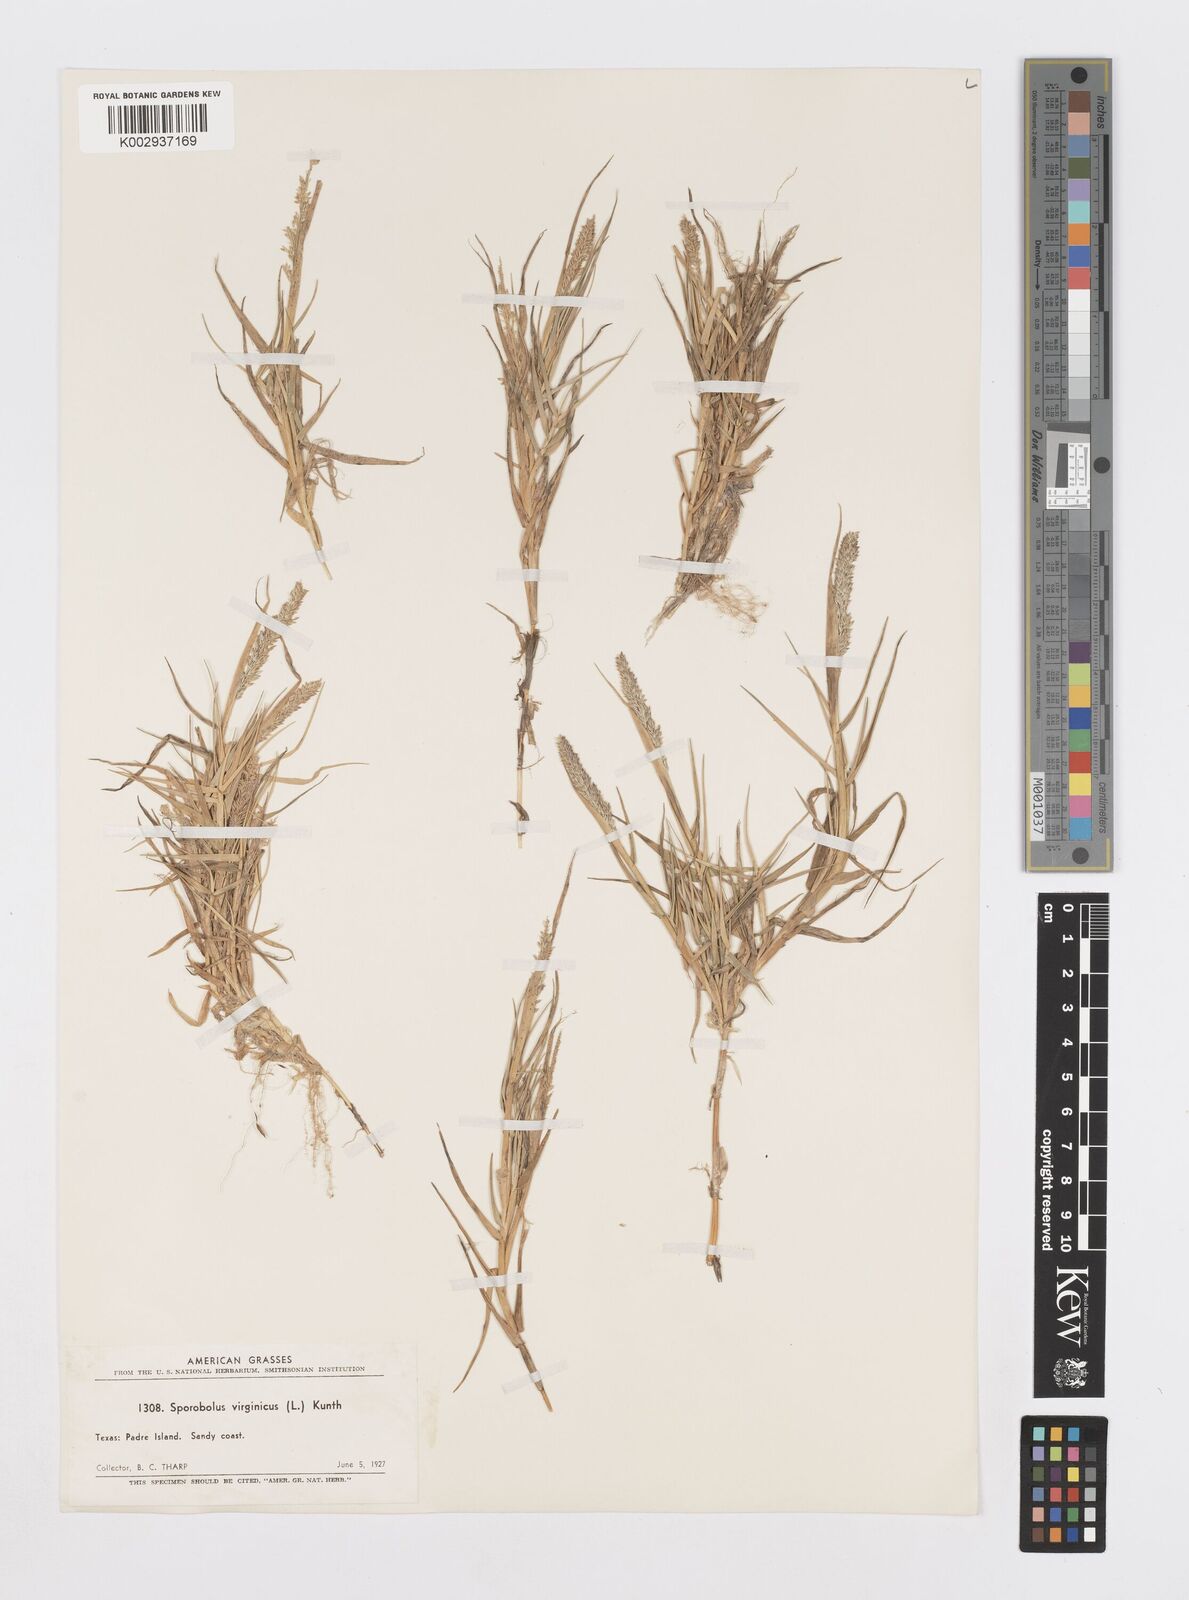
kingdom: Plantae
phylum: Tracheophyta
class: Liliopsida
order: Poales
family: Poaceae
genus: Sporobolus
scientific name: Sporobolus virginicus
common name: Beach dropseed
